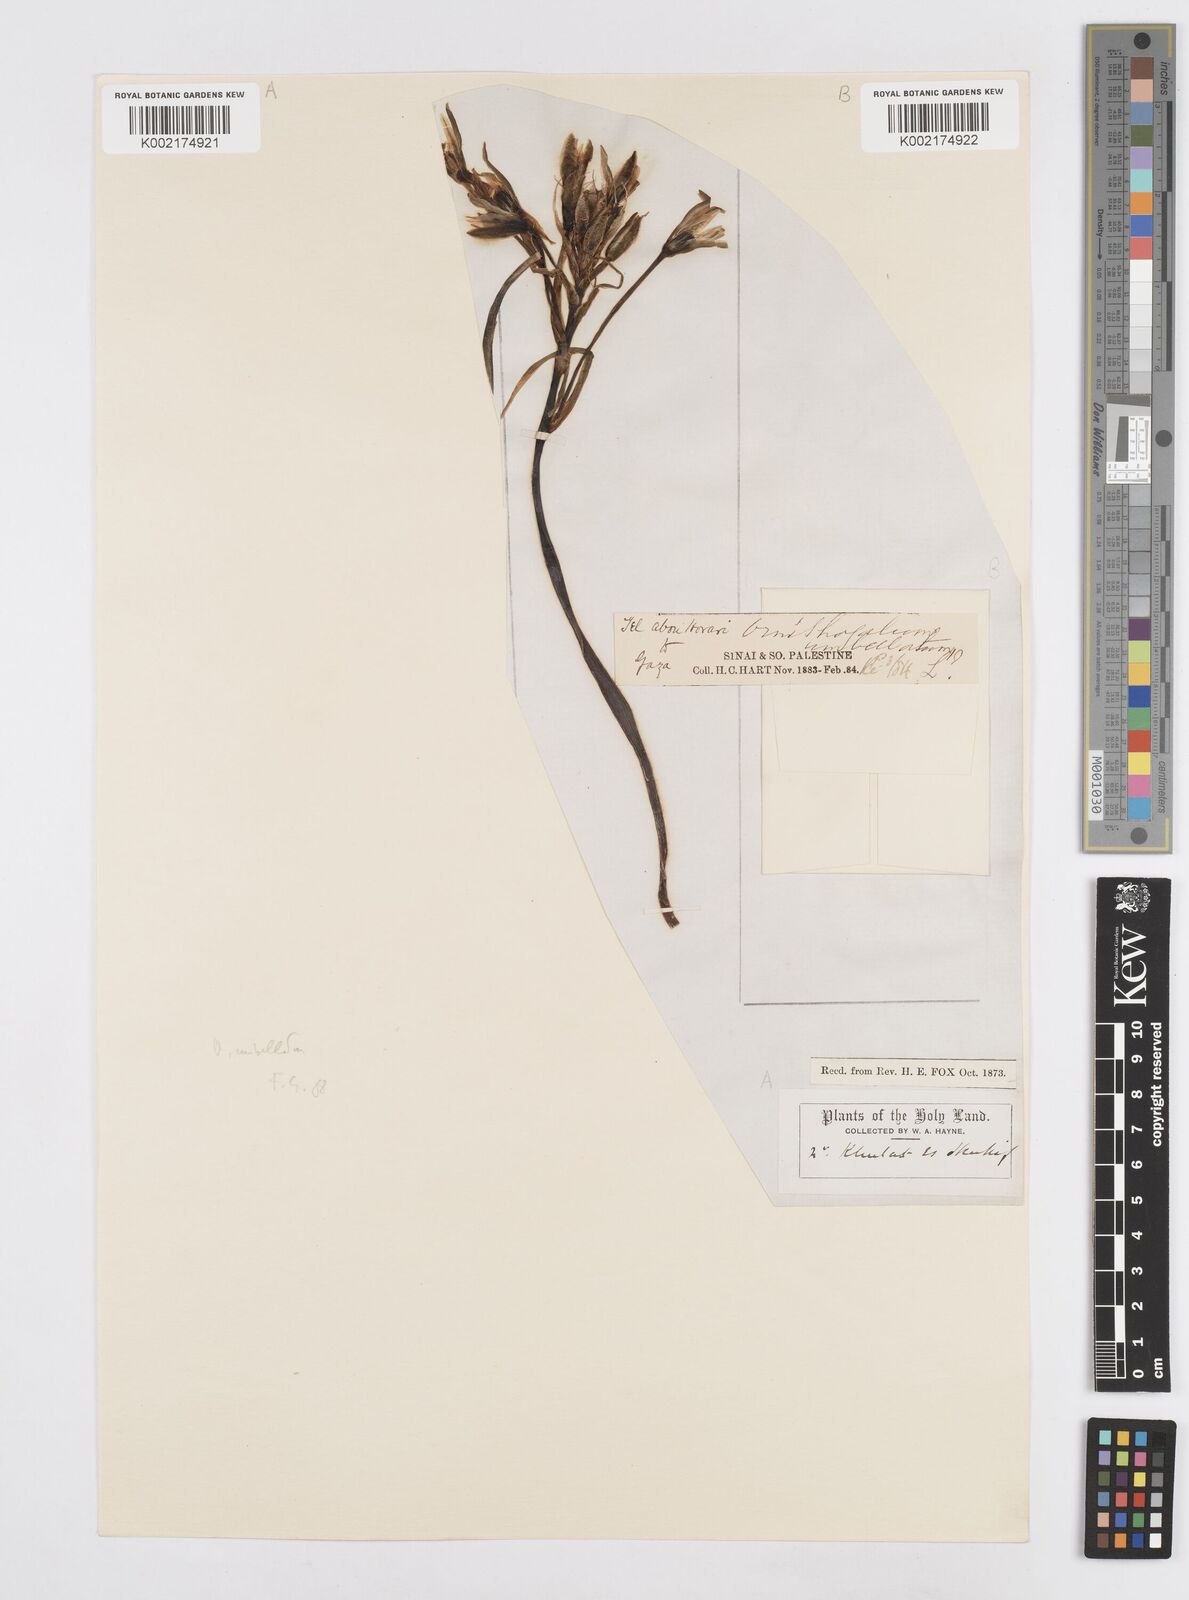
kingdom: Plantae
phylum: Tracheophyta
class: Liliopsida
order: Asparagales
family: Asparagaceae
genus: Ornithogalum
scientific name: Ornithogalum umbellatum
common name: Garden star-of-bethlehem
